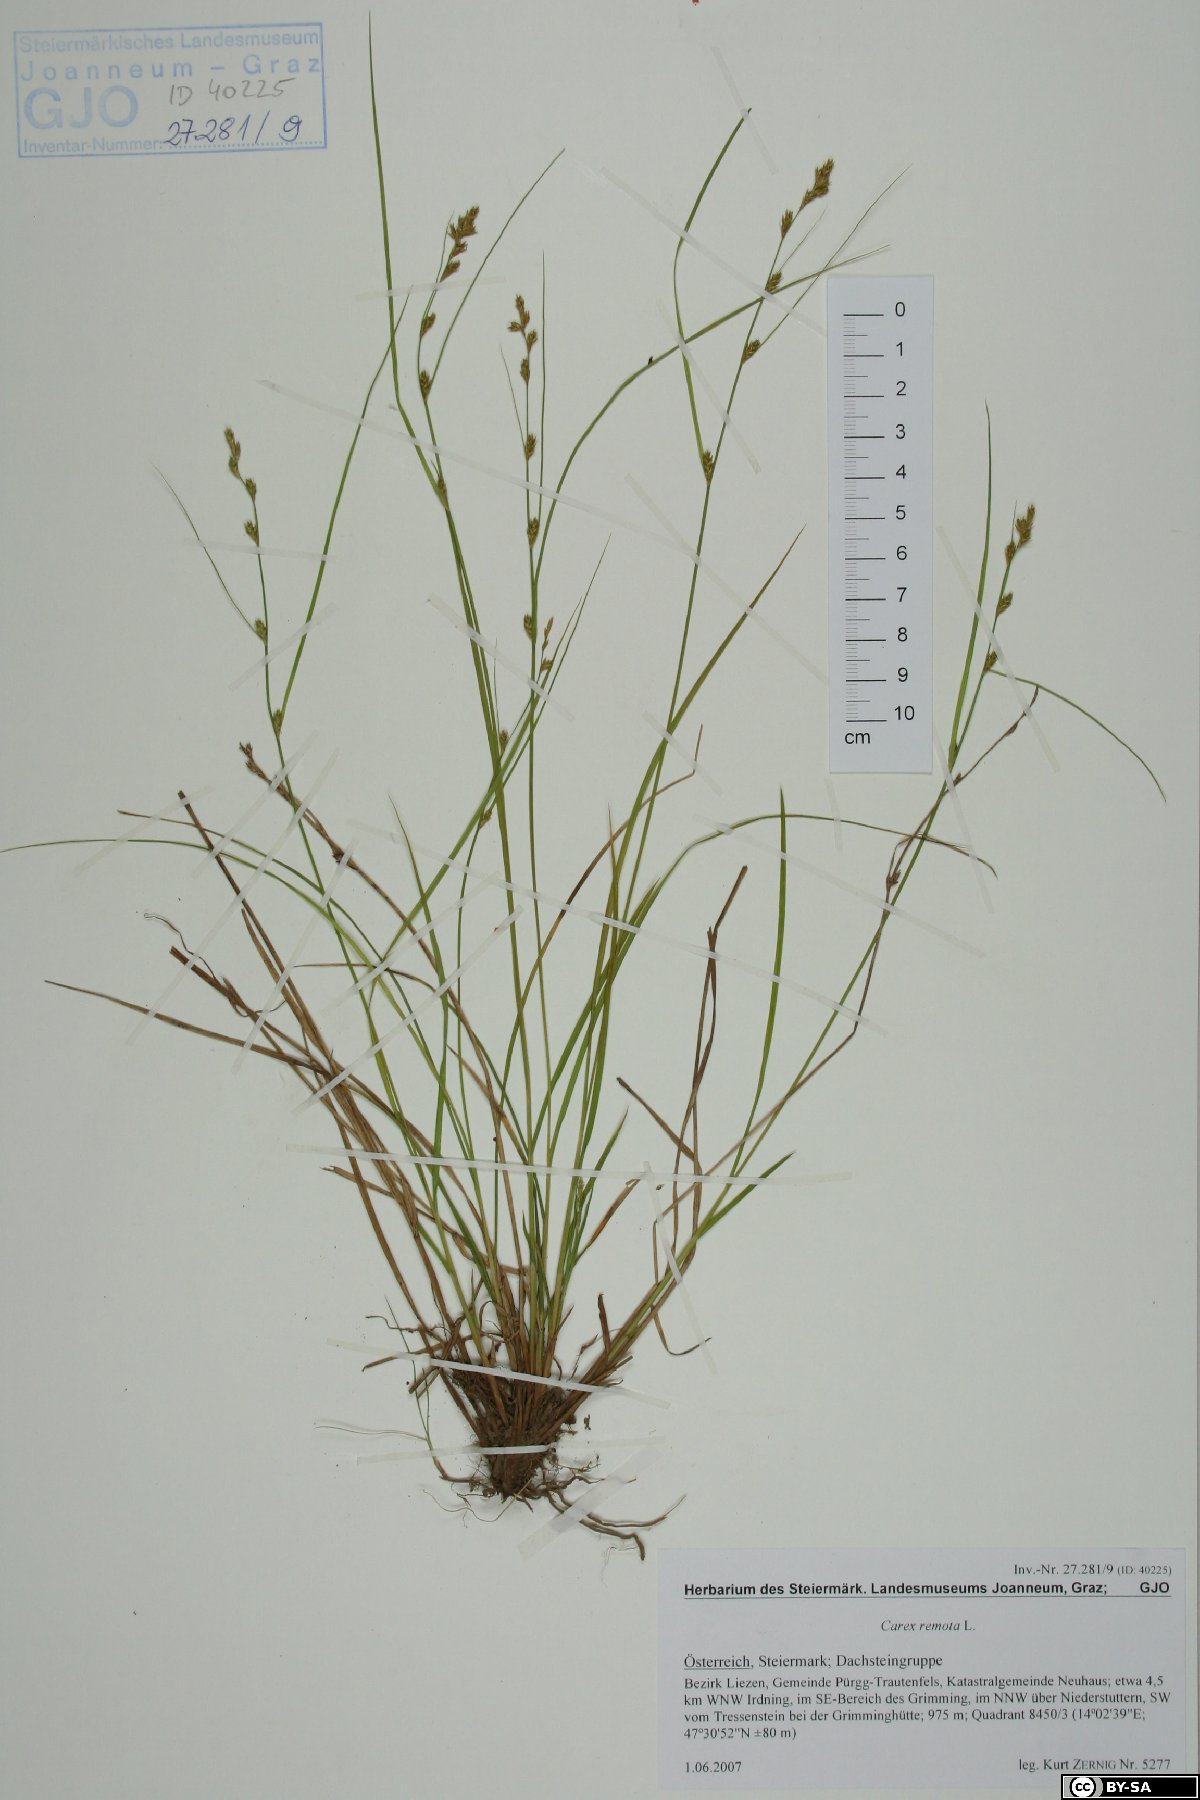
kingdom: Plantae
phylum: Tracheophyta
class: Liliopsida
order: Poales
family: Cyperaceae
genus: Carex
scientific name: Carex remota
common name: Remote sedge
